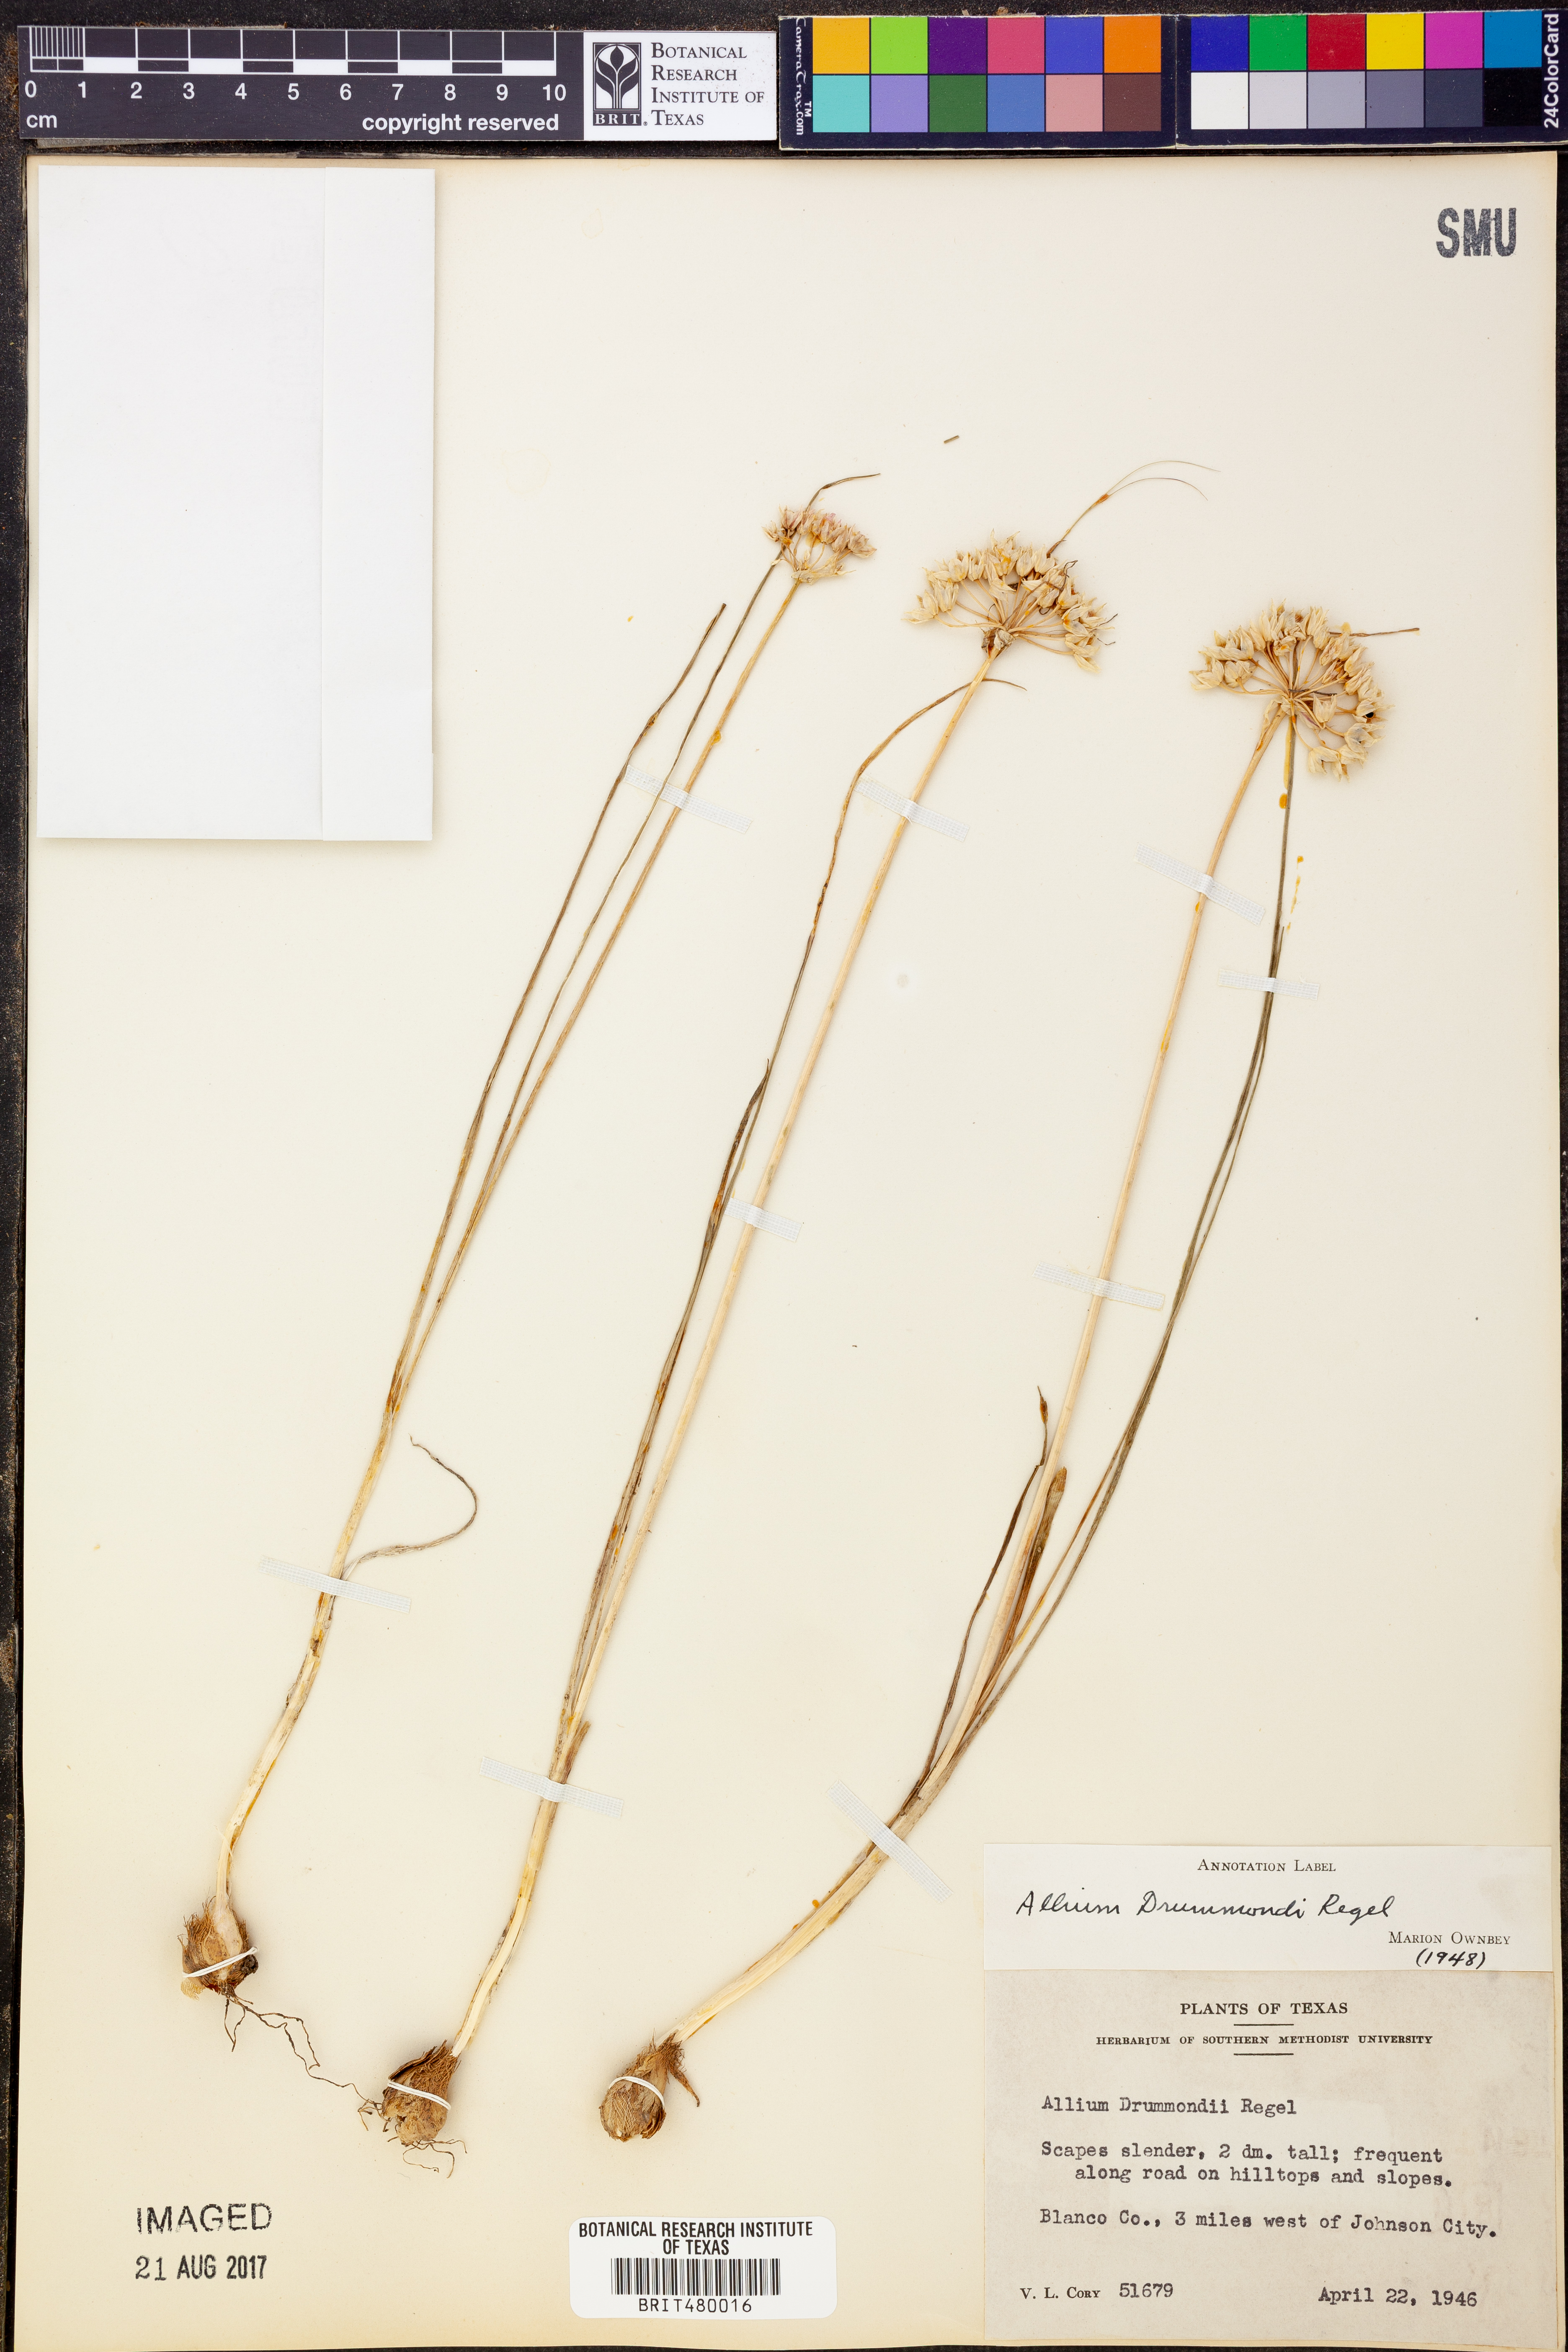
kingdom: Plantae
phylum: Tracheophyta
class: Liliopsida
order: Asparagales
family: Amaryllidaceae
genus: Allium
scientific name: Allium drummondii
